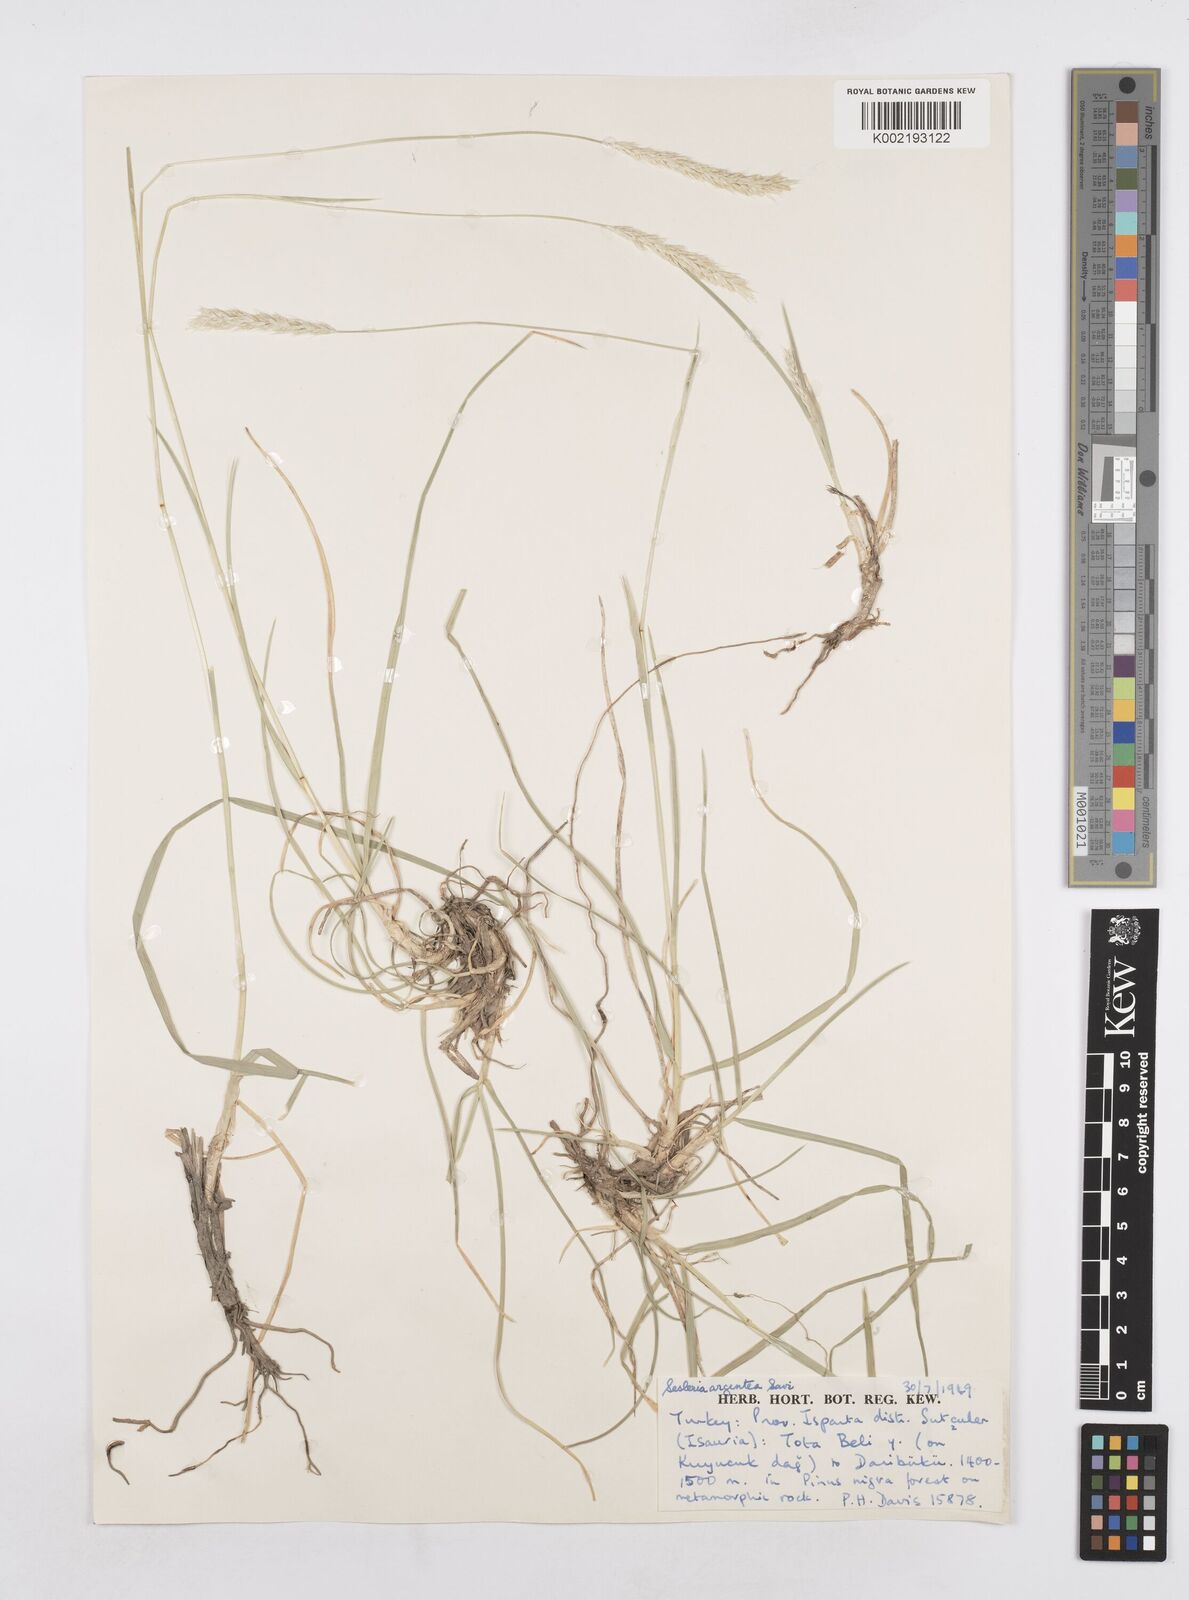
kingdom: Plantae
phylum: Tracheophyta
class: Liliopsida
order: Poales
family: Poaceae
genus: Sesleria
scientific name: Sesleria argentea
